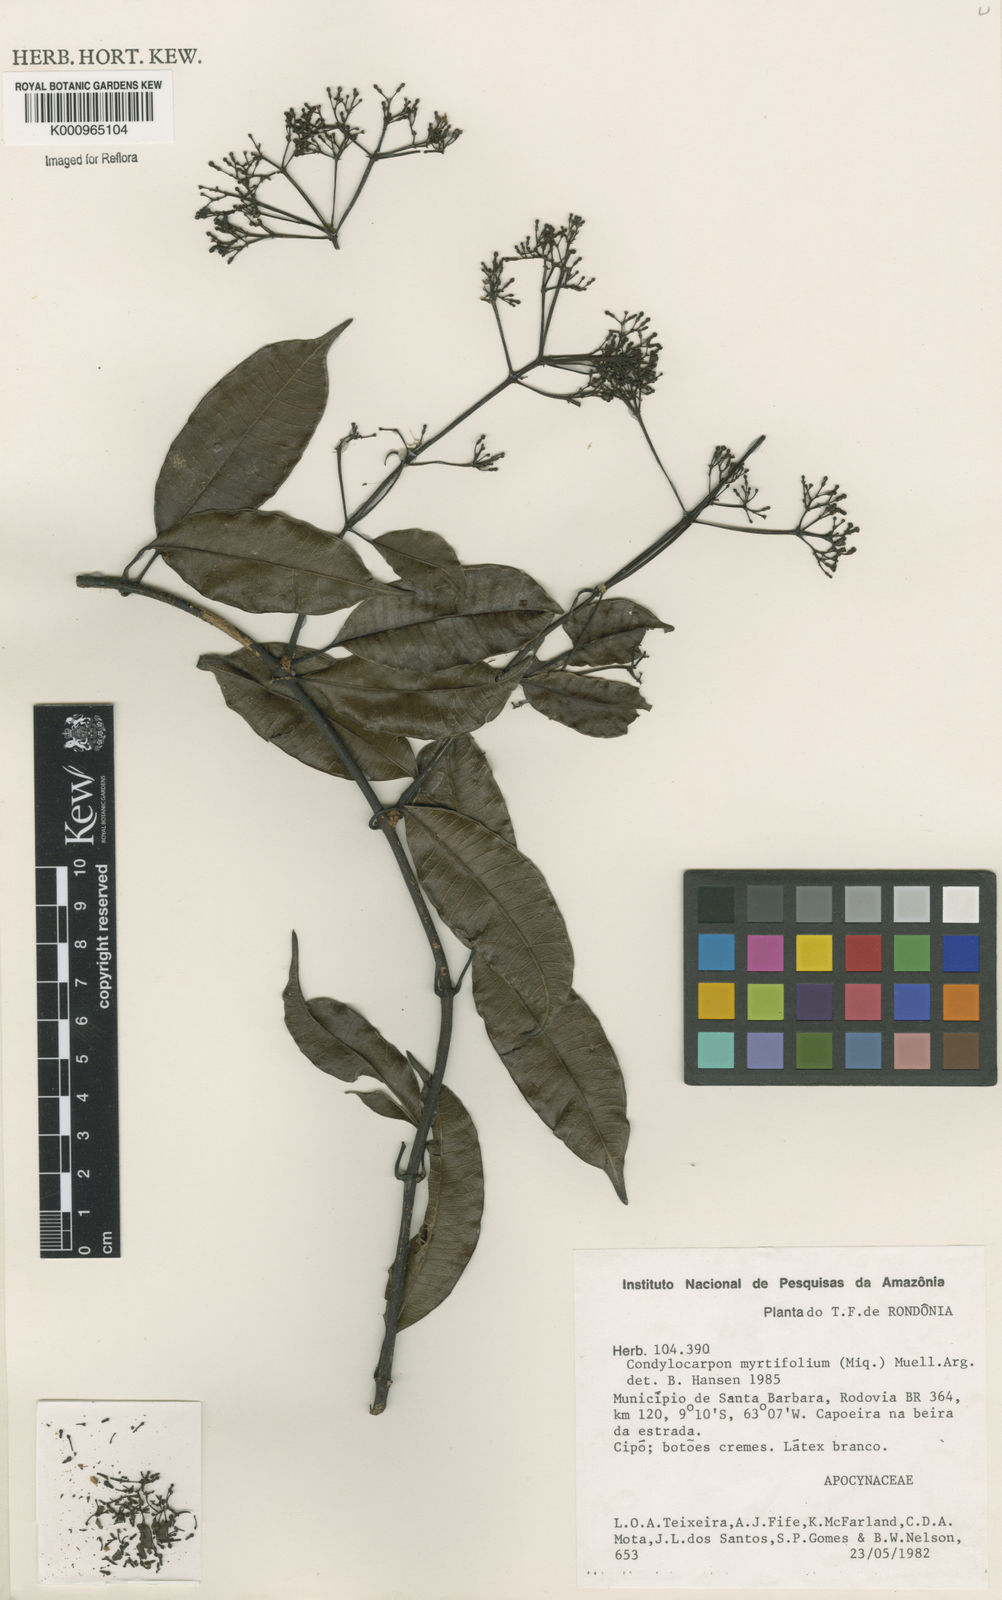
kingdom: Plantae
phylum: Tracheophyta
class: Magnoliopsida
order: Gentianales
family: Apocynaceae
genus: Condylocarpon
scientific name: Condylocarpon
